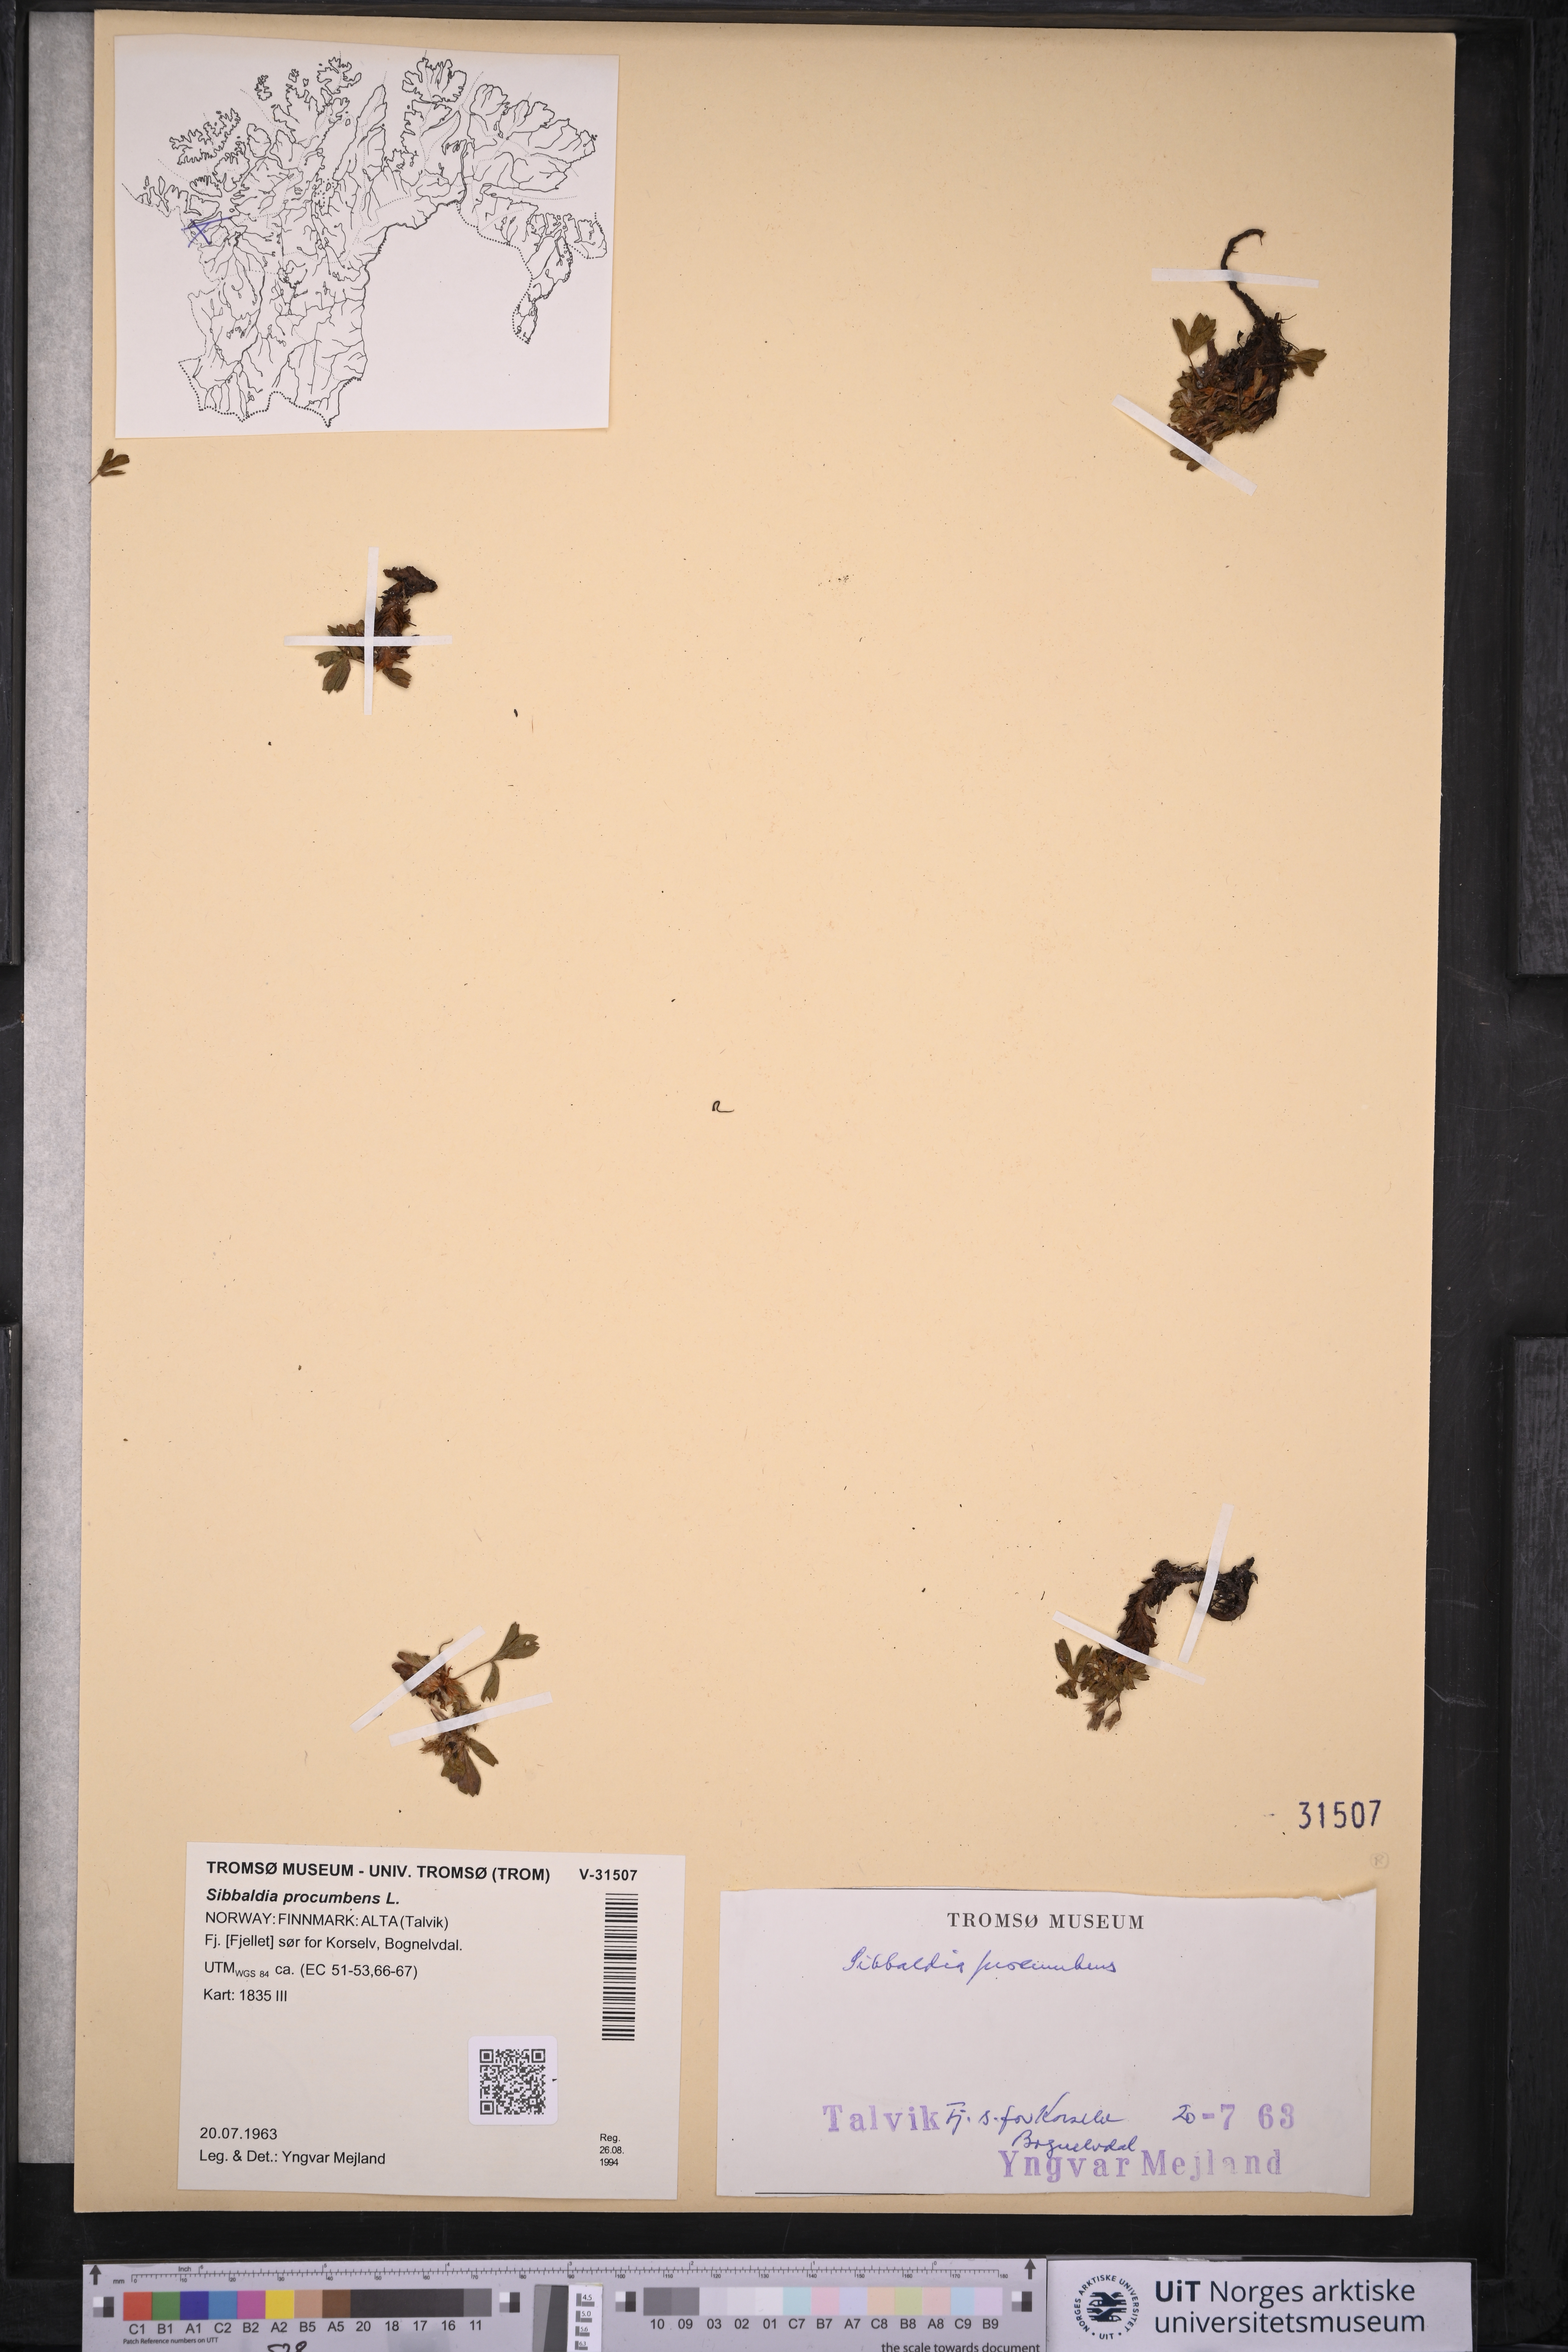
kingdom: Plantae
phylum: Tracheophyta
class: Magnoliopsida
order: Rosales
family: Rosaceae
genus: Sibbaldia
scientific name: Sibbaldia procumbens
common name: Creeping sibbaldia
